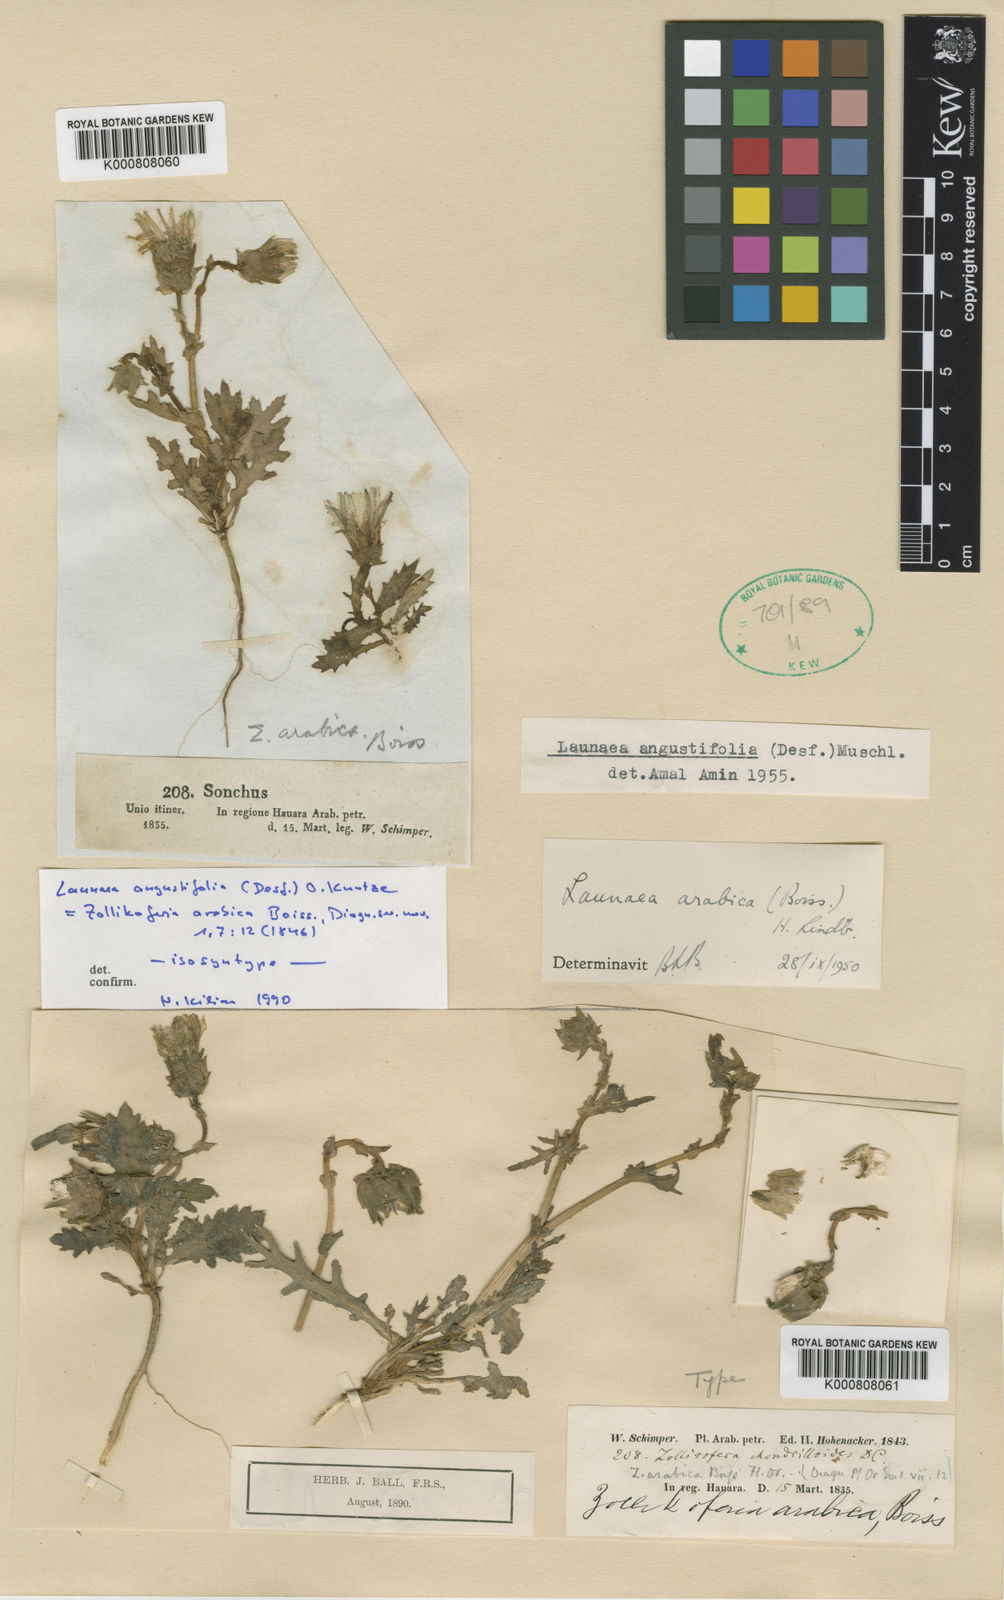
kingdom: Plantae
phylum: Tracheophyta
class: Magnoliopsida
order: Asterales
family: Asteraceae
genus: Launaea
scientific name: Launaea
